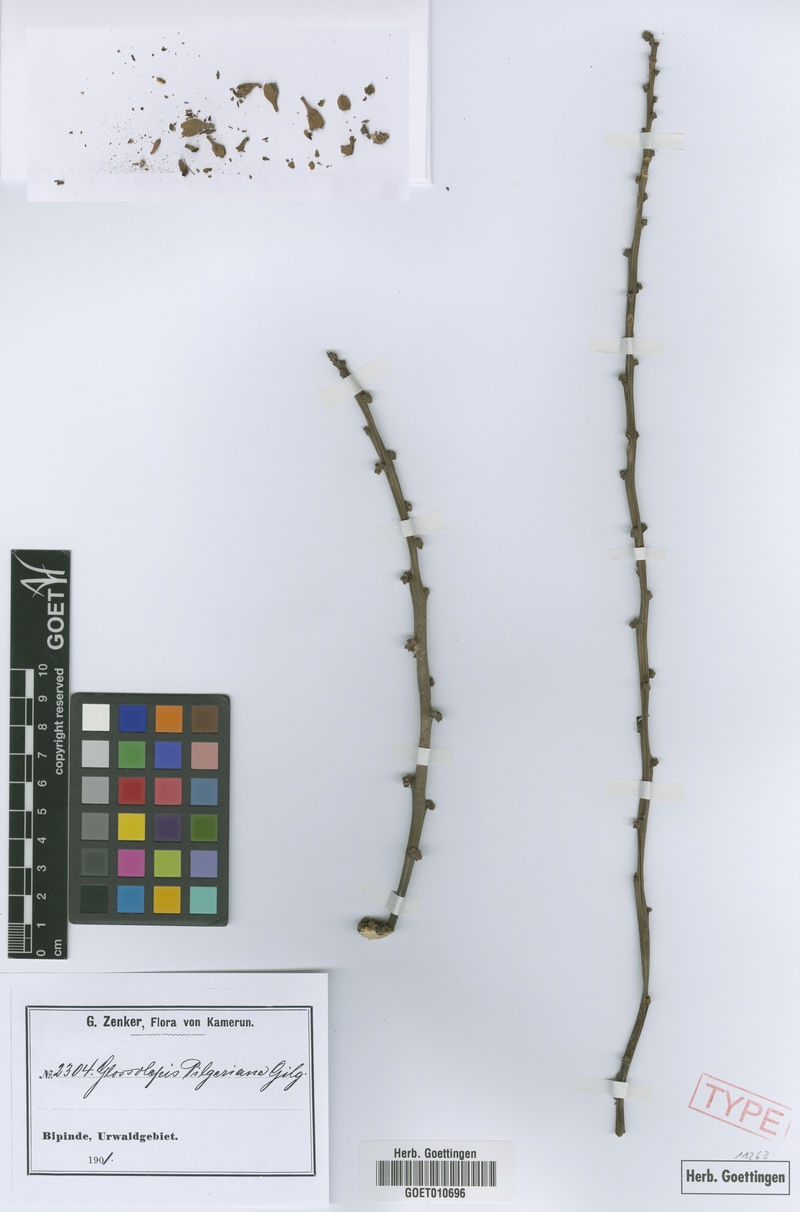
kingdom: Plantae
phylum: Tracheophyta
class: Magnoliopsida
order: Sapindales
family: Sapindaceae
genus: Chytranthus
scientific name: Chytranthus talbotii
